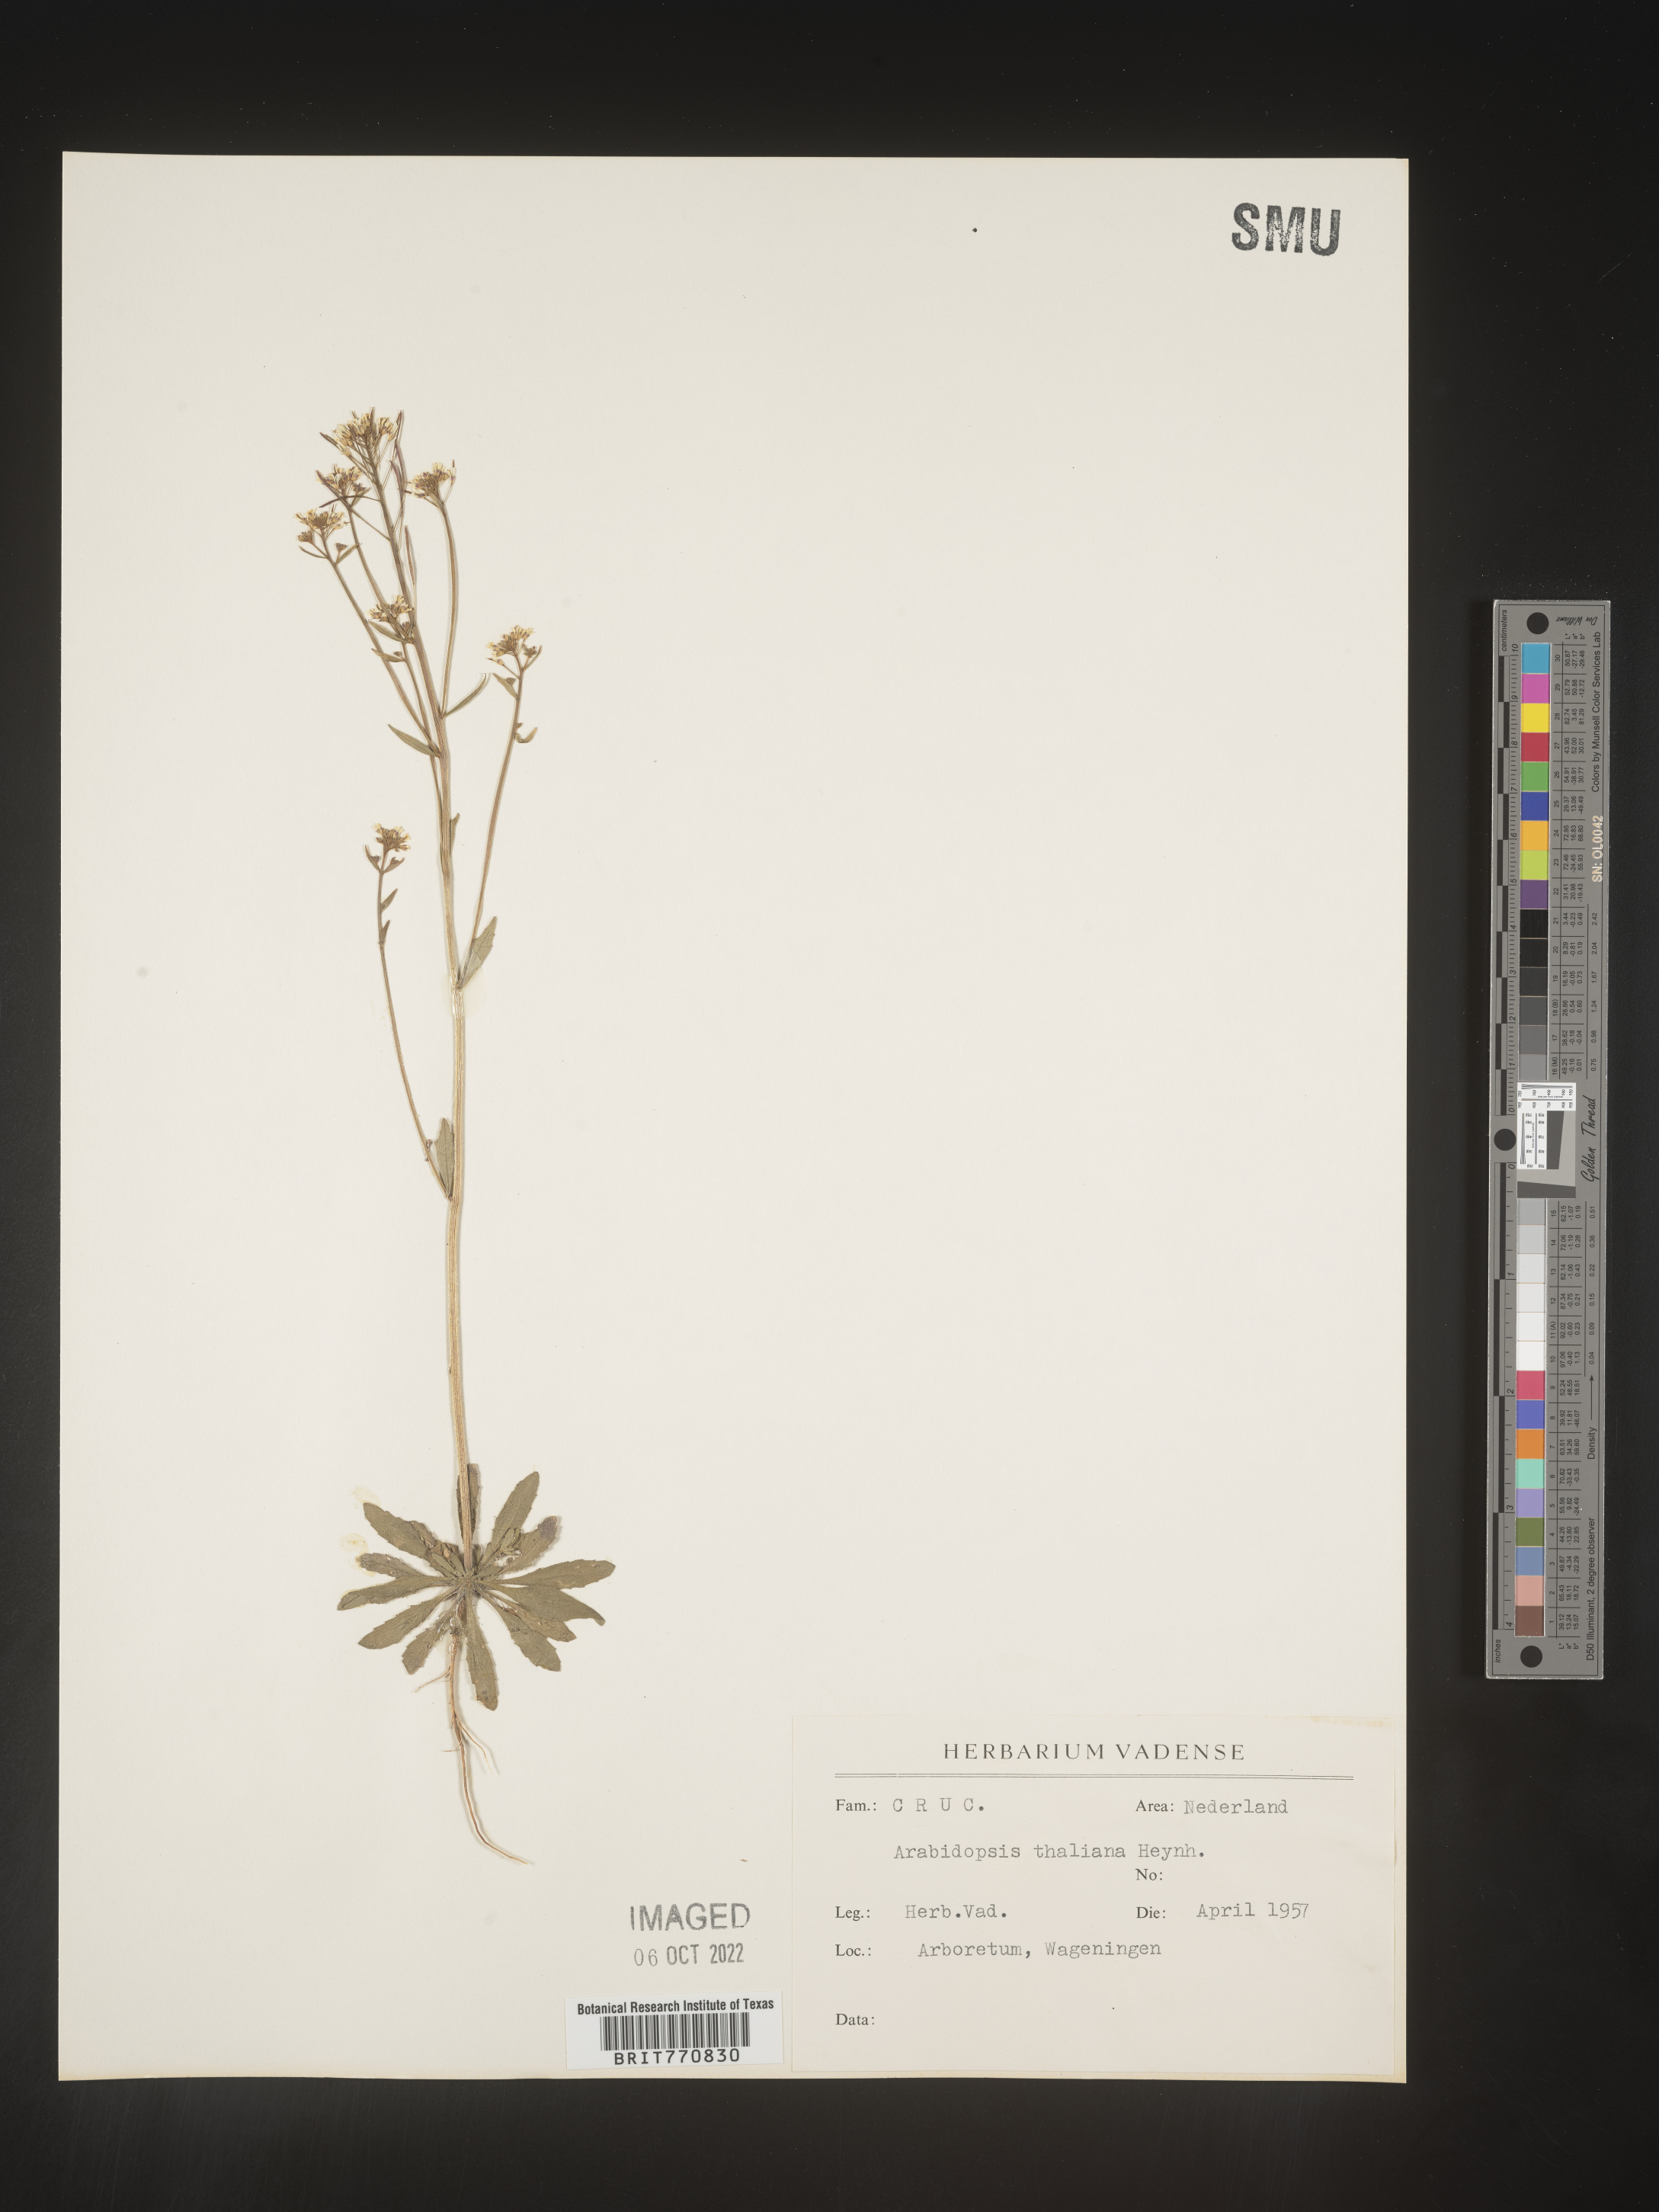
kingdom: Plantae
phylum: Tracheophyta
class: Magnoliopsida
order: Brassicales
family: Brassicaceae
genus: Arabidopsis
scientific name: Arabidopsis
